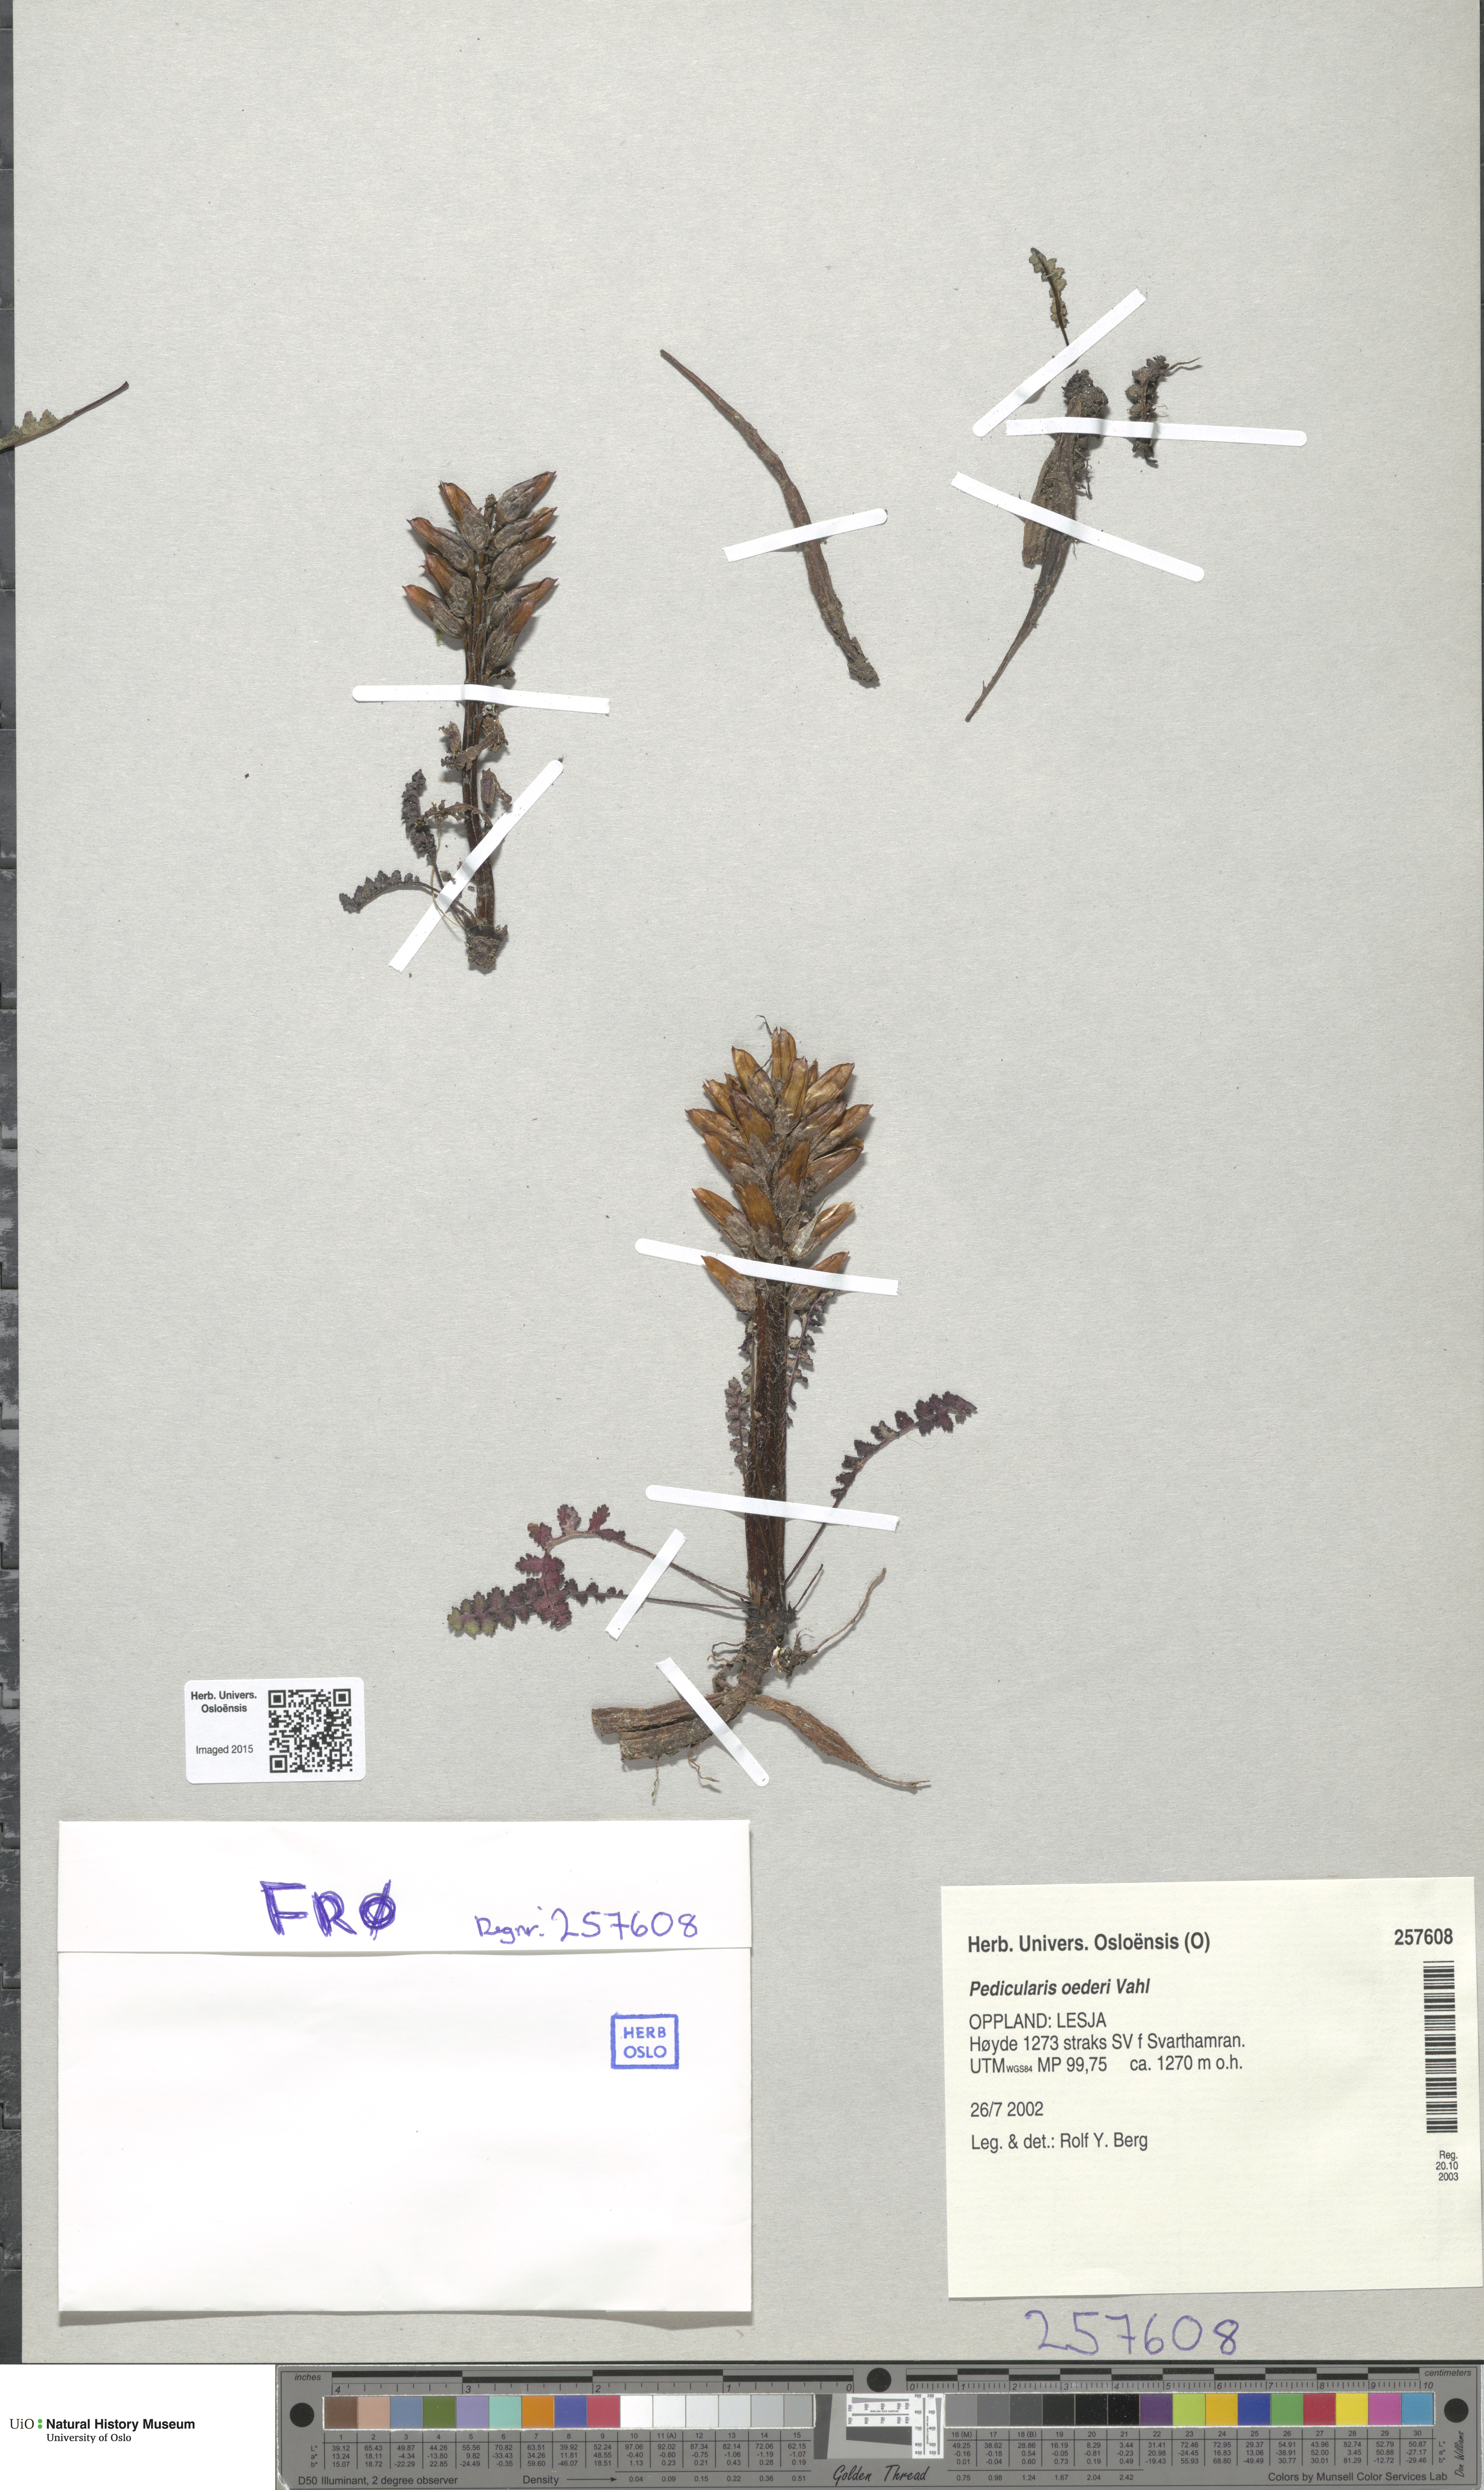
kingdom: Plantae
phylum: Tracheophyta
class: Magnoliopsida
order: Lamiales
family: Orobanchaceae
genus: Pedicularis
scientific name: Pedicularis oederi
